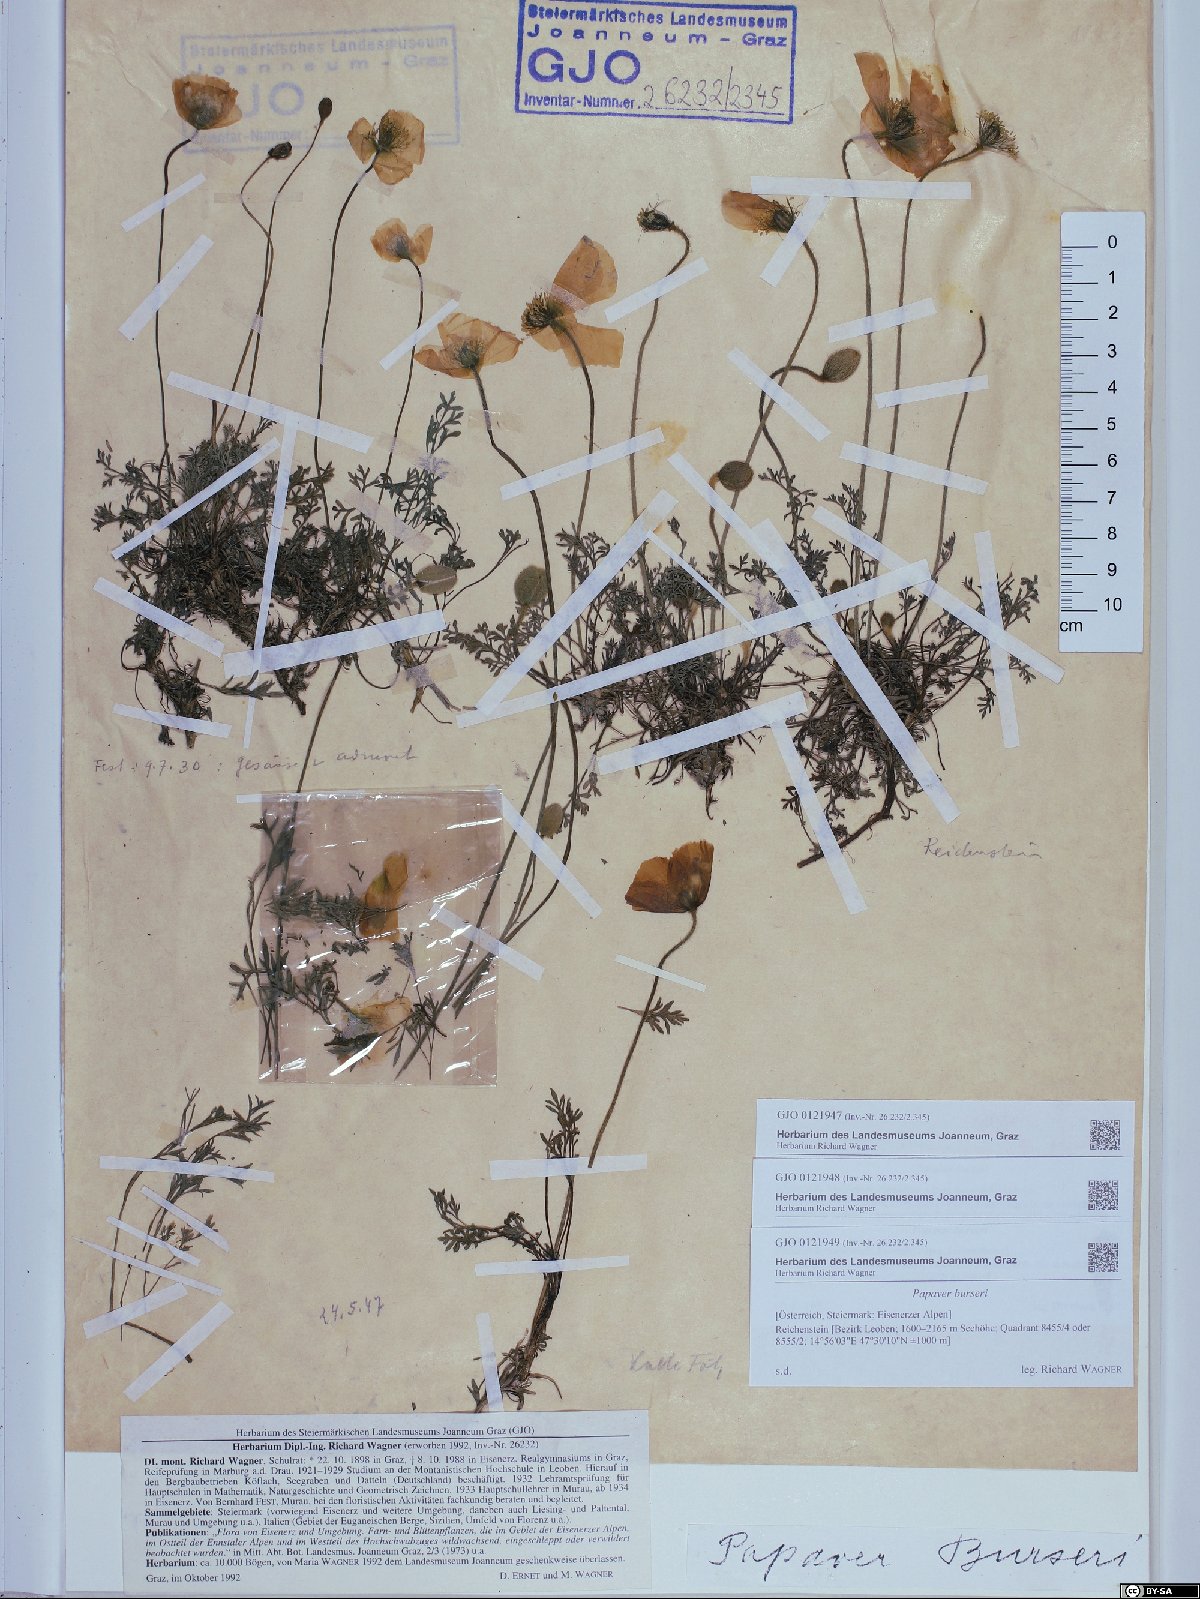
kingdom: Plantae
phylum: Tracheophyta
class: Magnoliopsida
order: Ranunculales
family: Papaveraceae
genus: Papaver
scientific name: Papaver alpinum
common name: Austrian poppy
